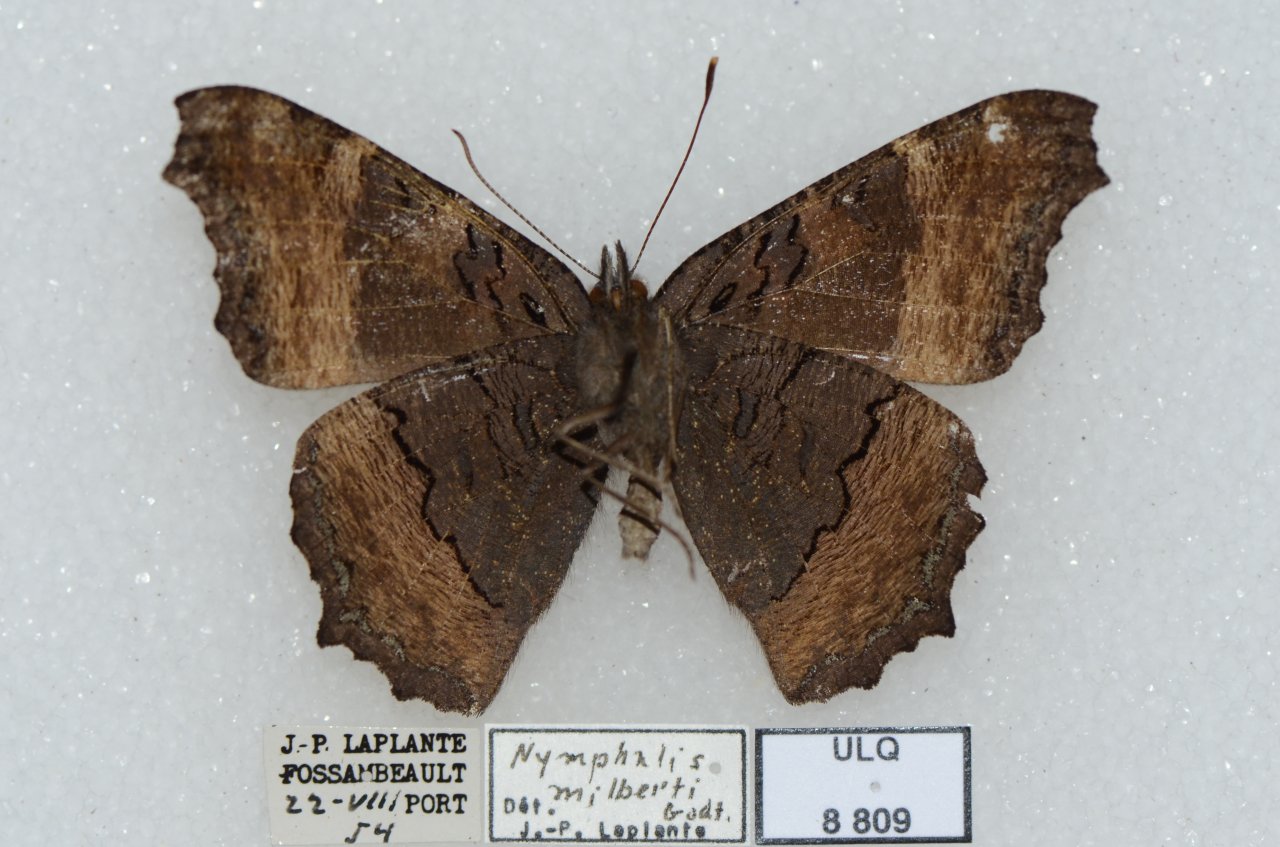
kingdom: Animalia
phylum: Arthropoda
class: Insecta
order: Lepidoptera
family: Nymphalidae
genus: Aglais
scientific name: Aglais milberti
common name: Milbert's Tortoiseshell
